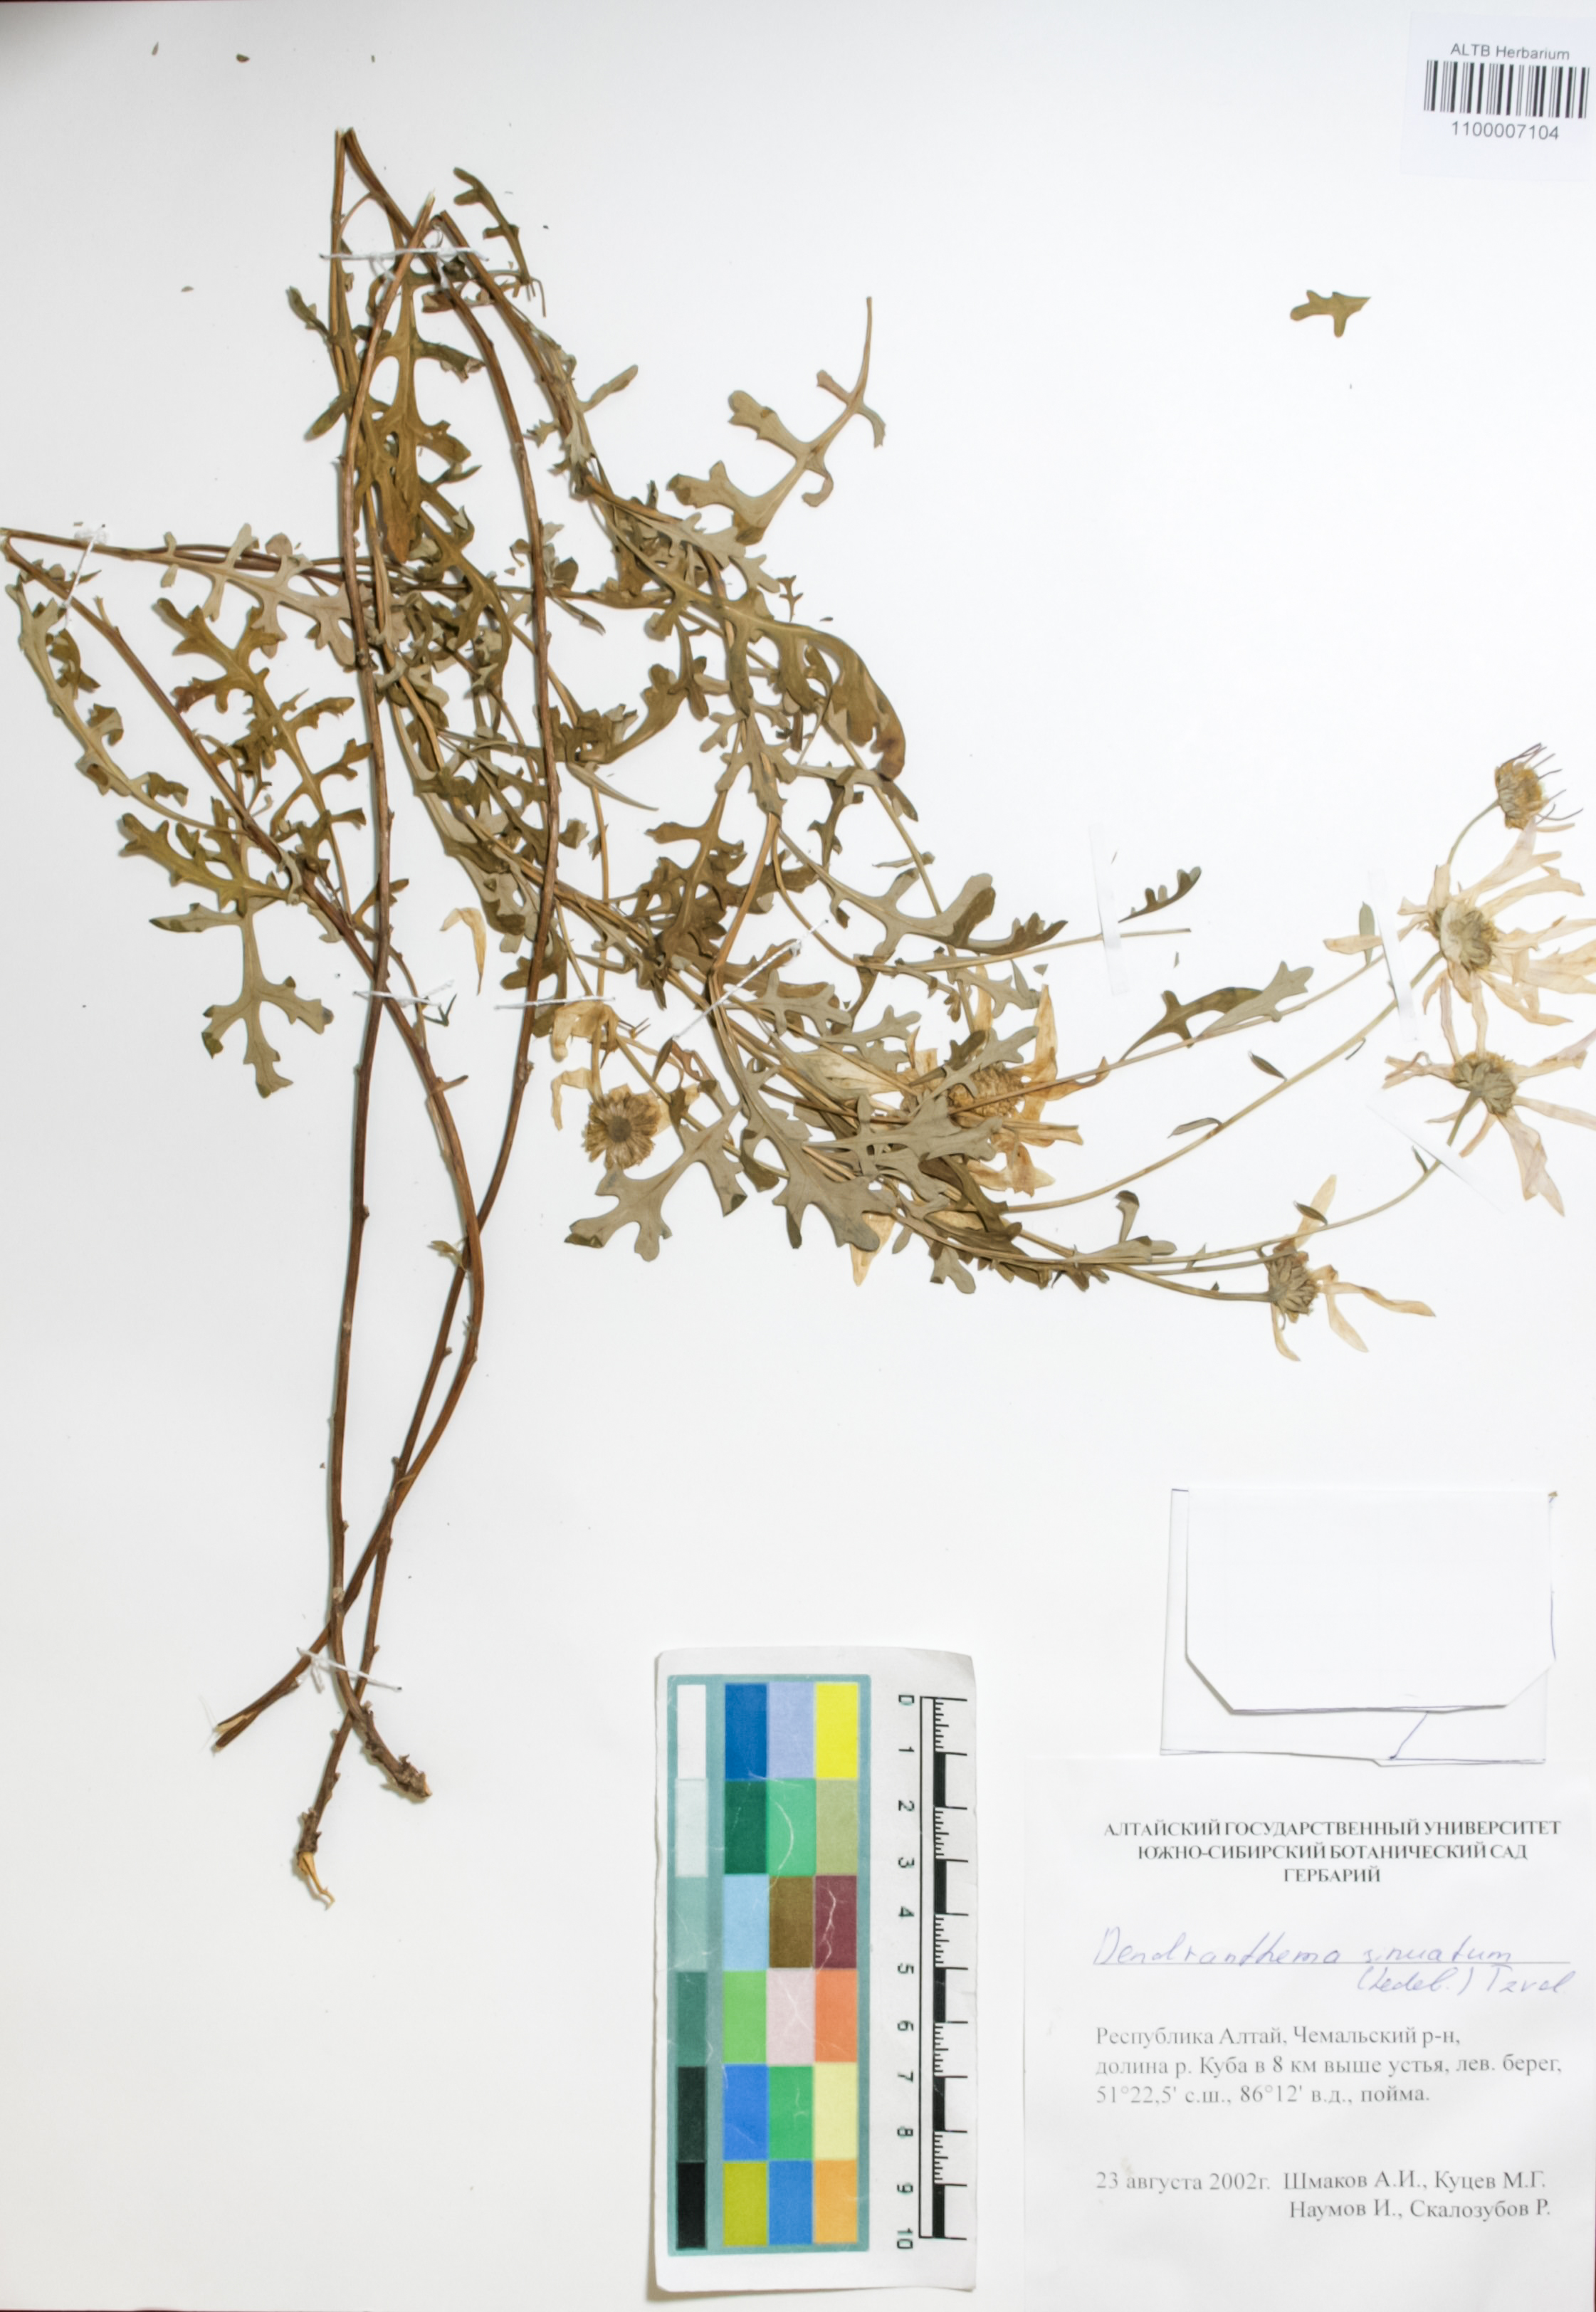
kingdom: Plantae
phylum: Tracheophyta
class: Magnoliopsida
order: Asterales
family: Asteraceae
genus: Chrysanthemum
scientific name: Chrysanthemum sinuatum
